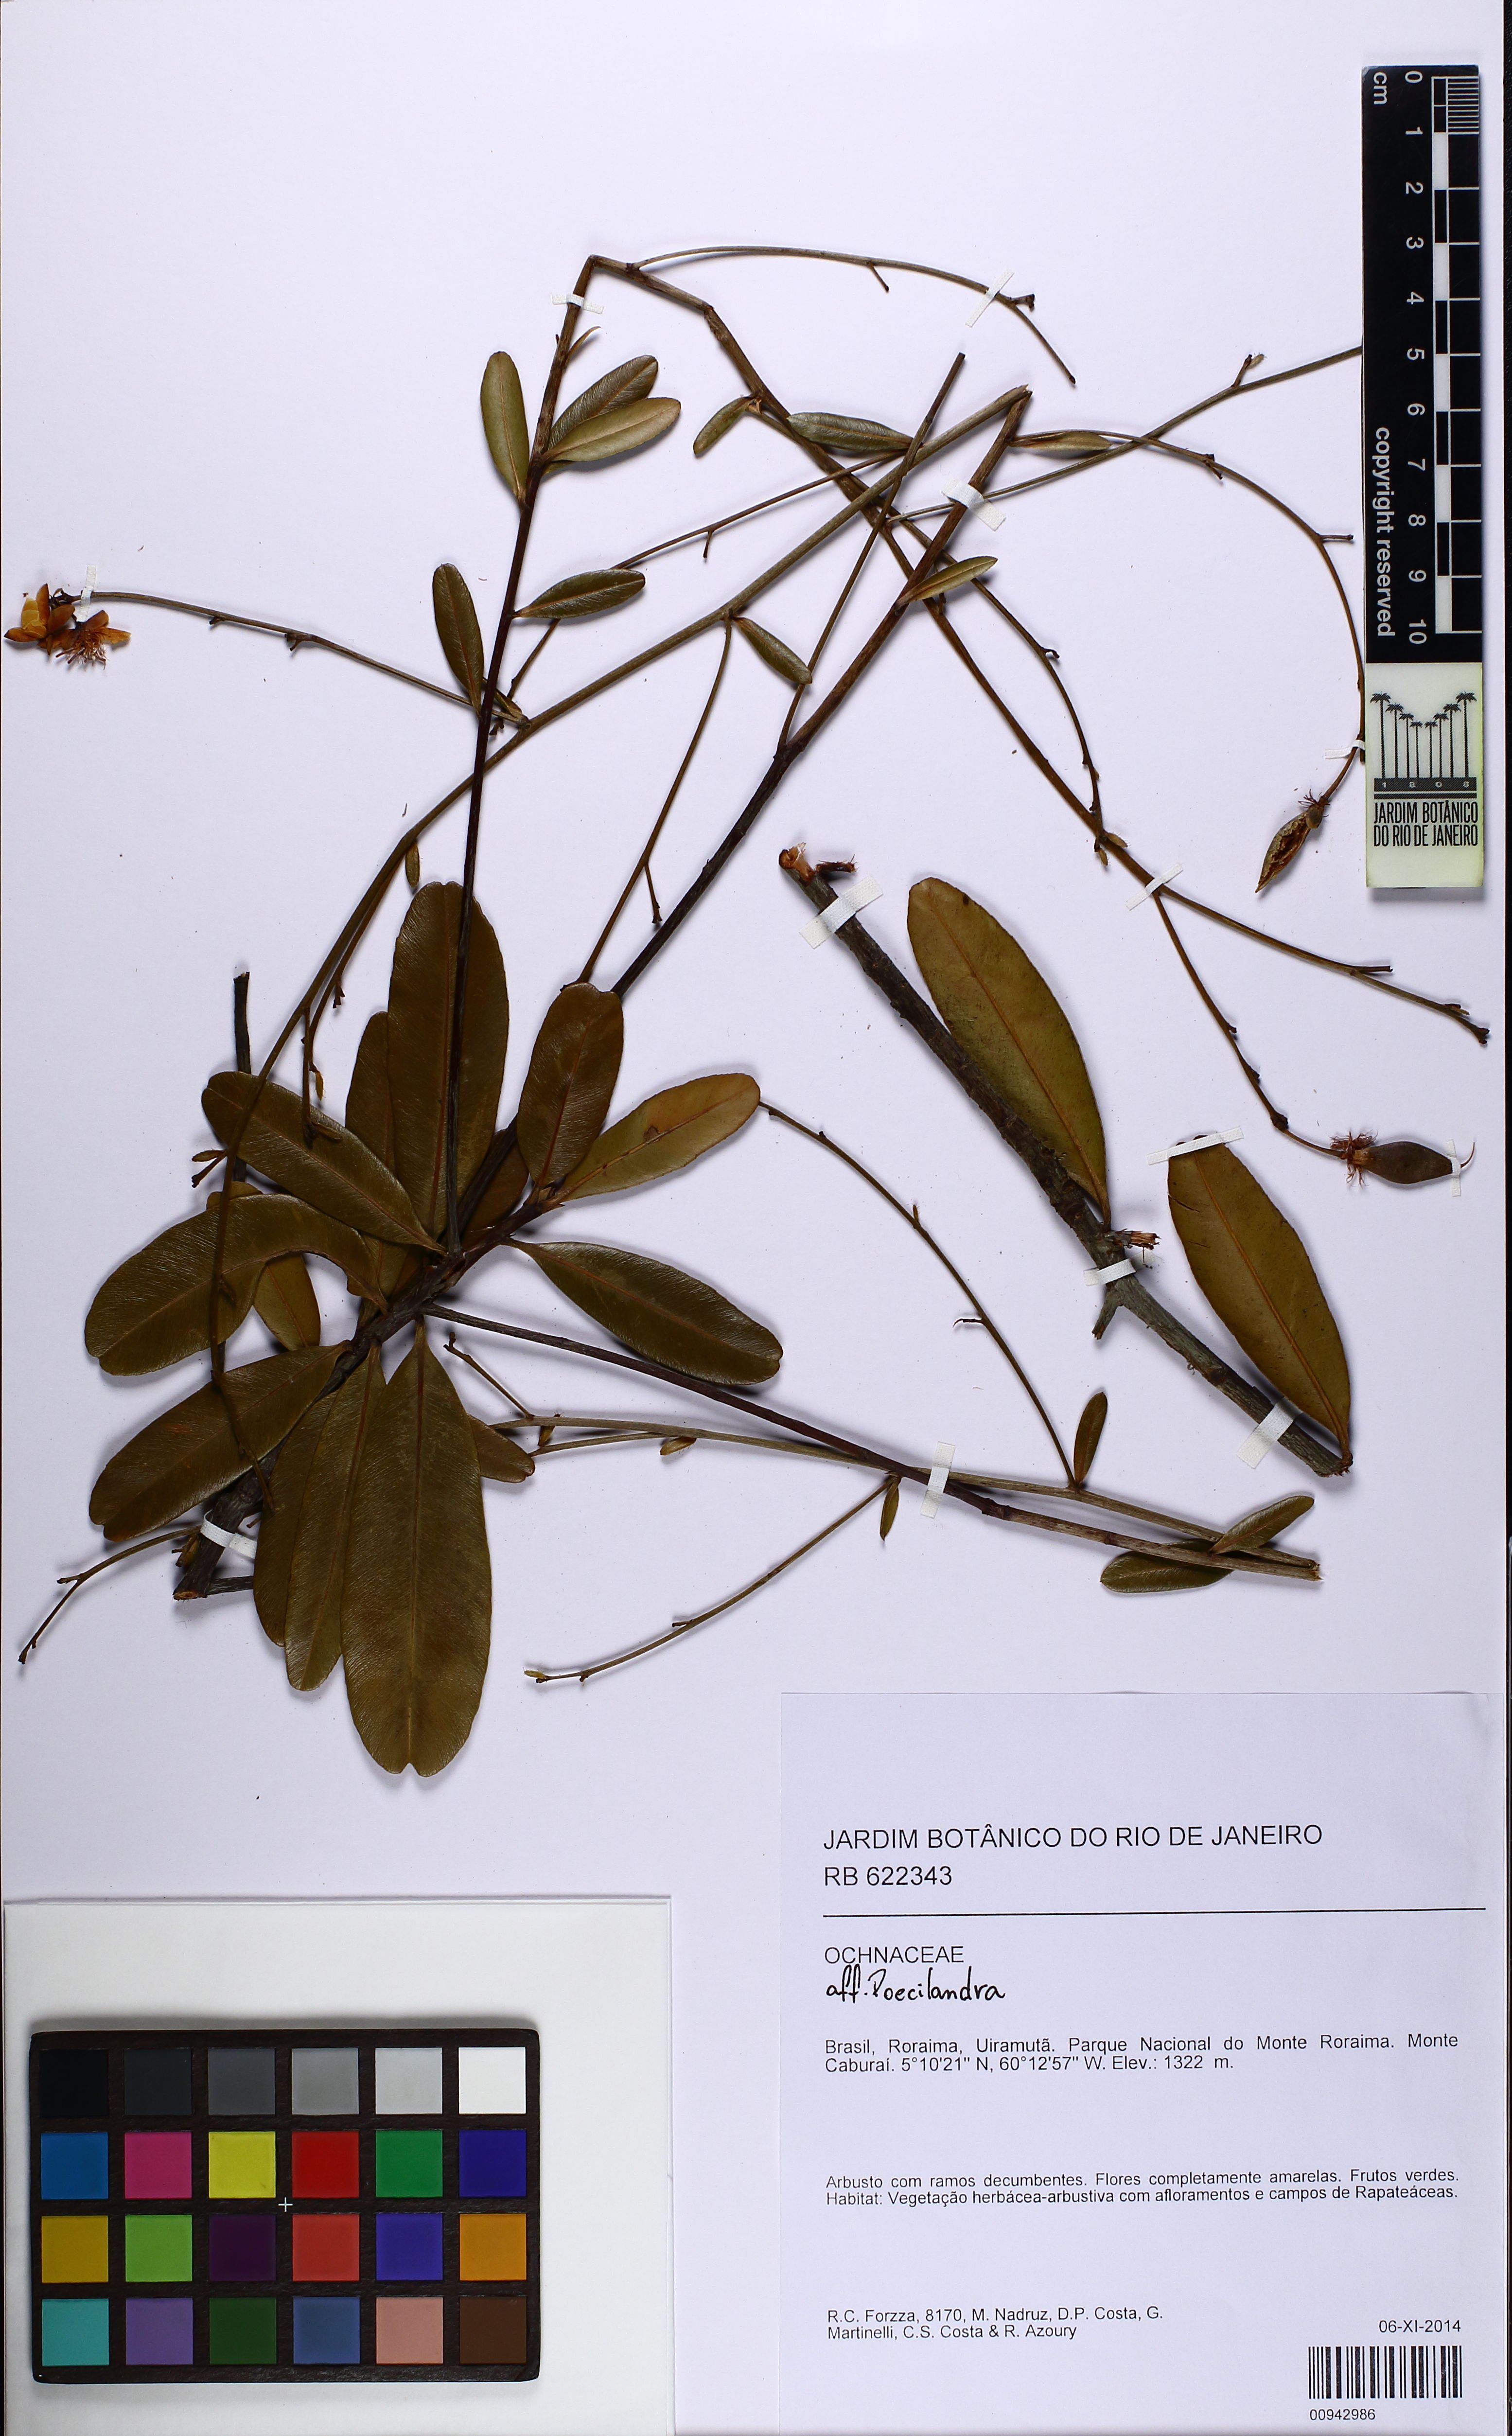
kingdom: Plantae
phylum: Tracheophyta
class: Magnoliopsida
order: Malpighiales
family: Ochnaceae
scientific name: Ochnaceae
